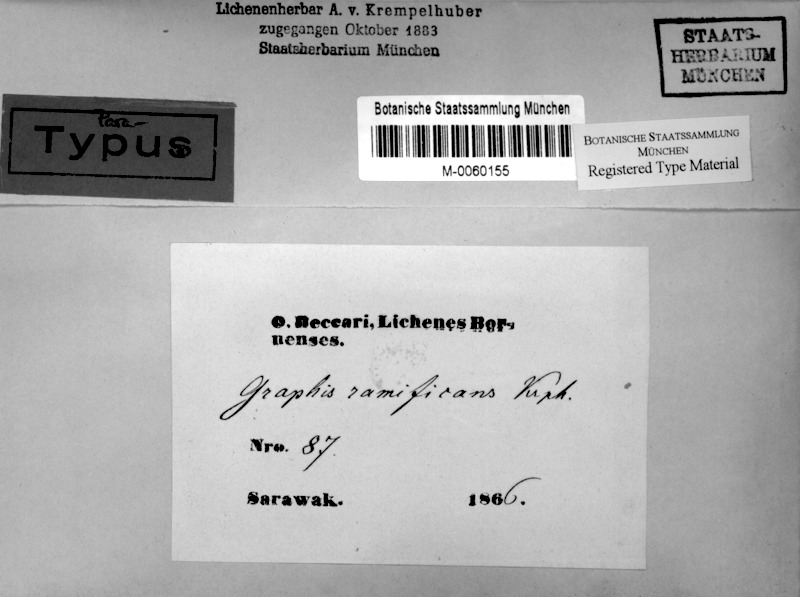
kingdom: Fungi
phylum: Ascomycota
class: Lecanoromycetes
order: Ostropales
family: Graphidaceae
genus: Sarcographa
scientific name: Sarcographa ramificans
